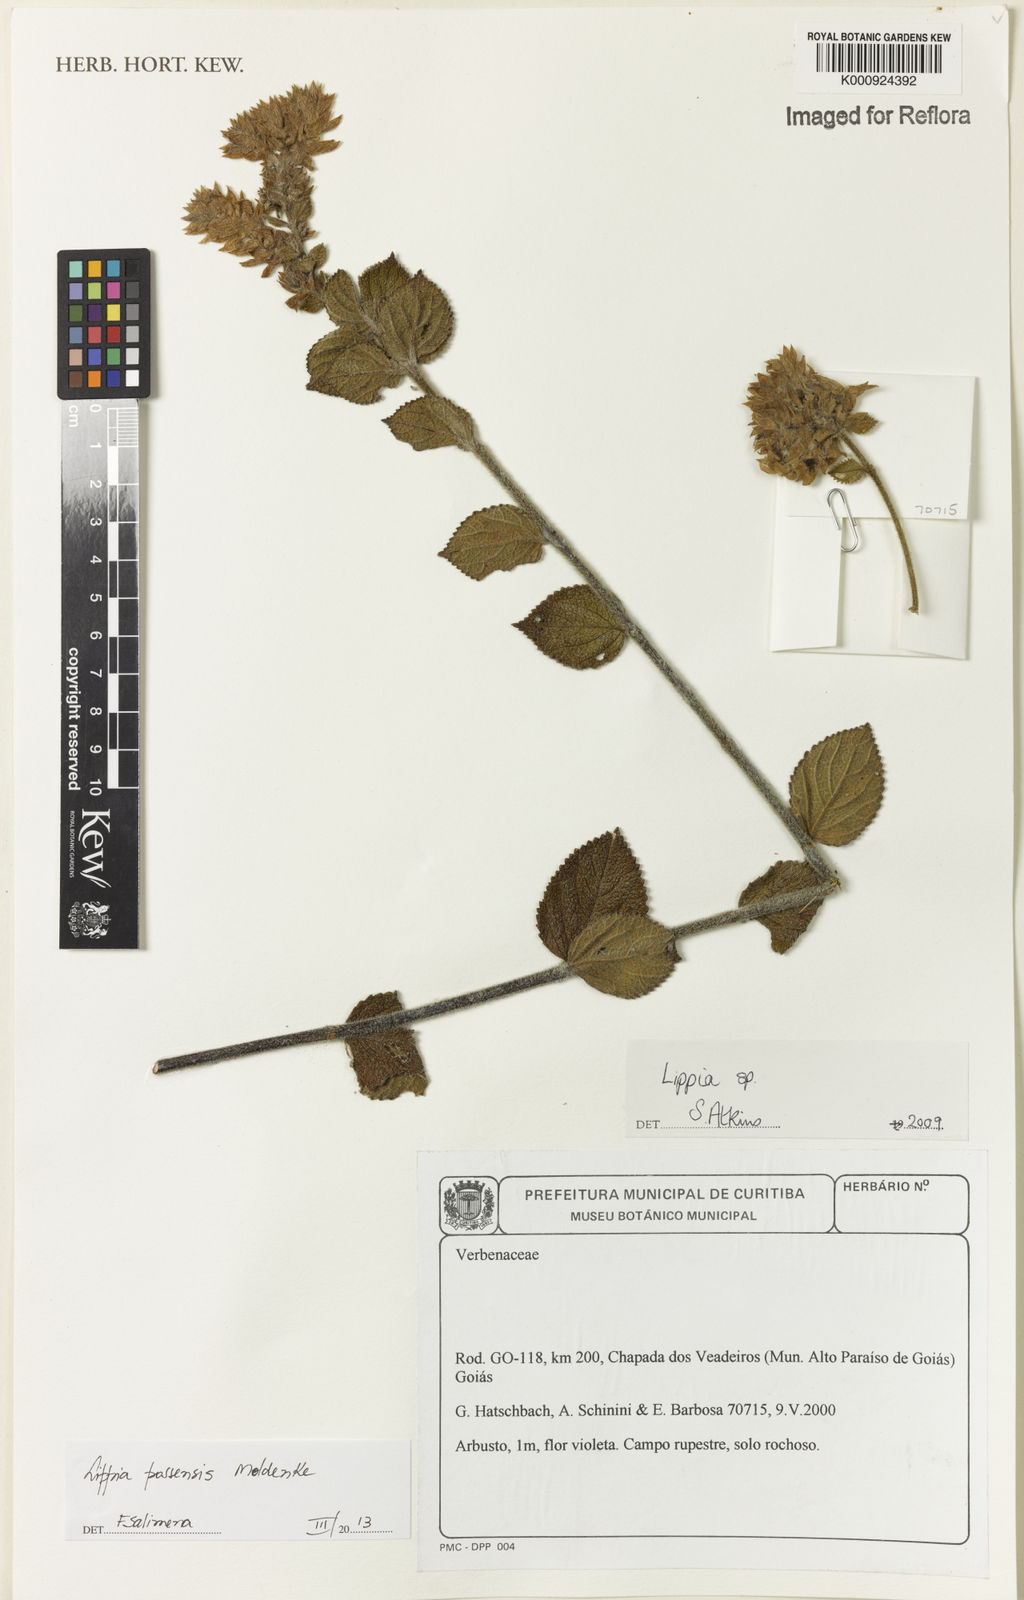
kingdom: Plantae
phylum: Tracheophyta
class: Magnoliopsida
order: Lamiales
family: Verbenaceae
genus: Lippia
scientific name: Lippia possensis
